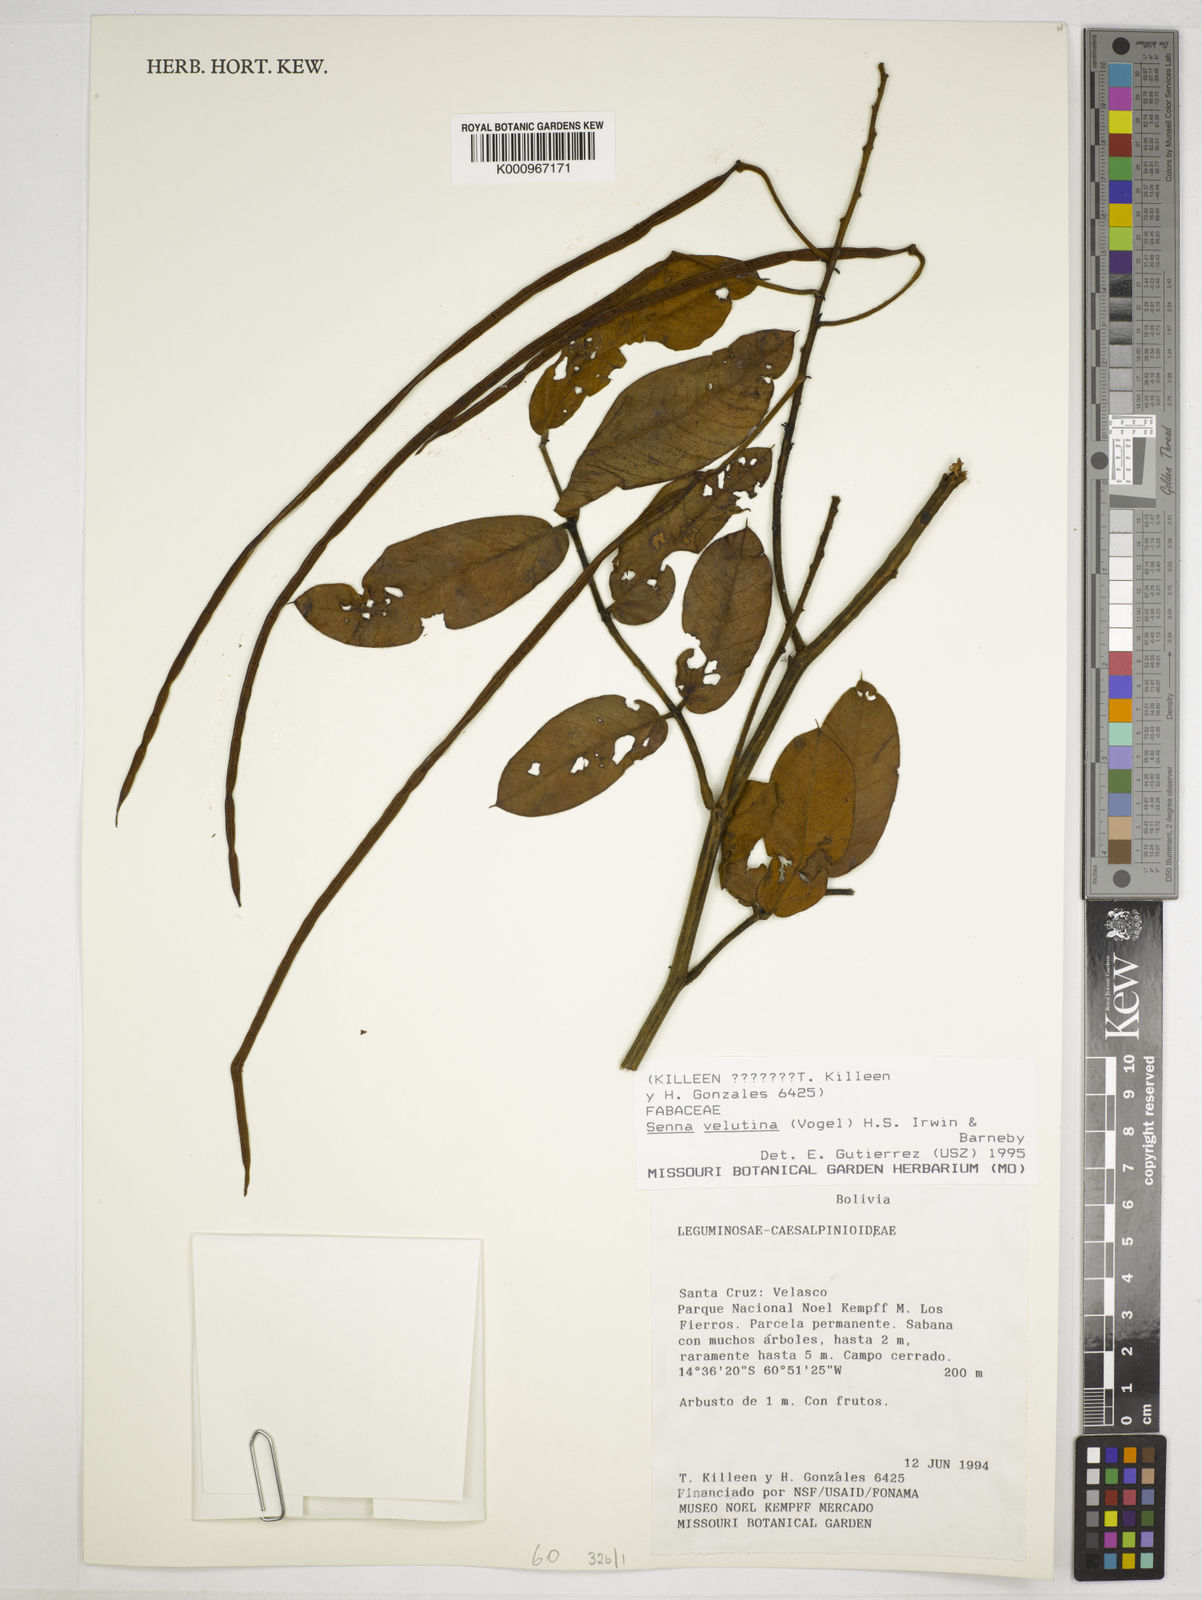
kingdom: Plantae
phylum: Tracheophyta
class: Magnoliopsida
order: Fabales
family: Fabaceae
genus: Senna
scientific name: Senna velutina
